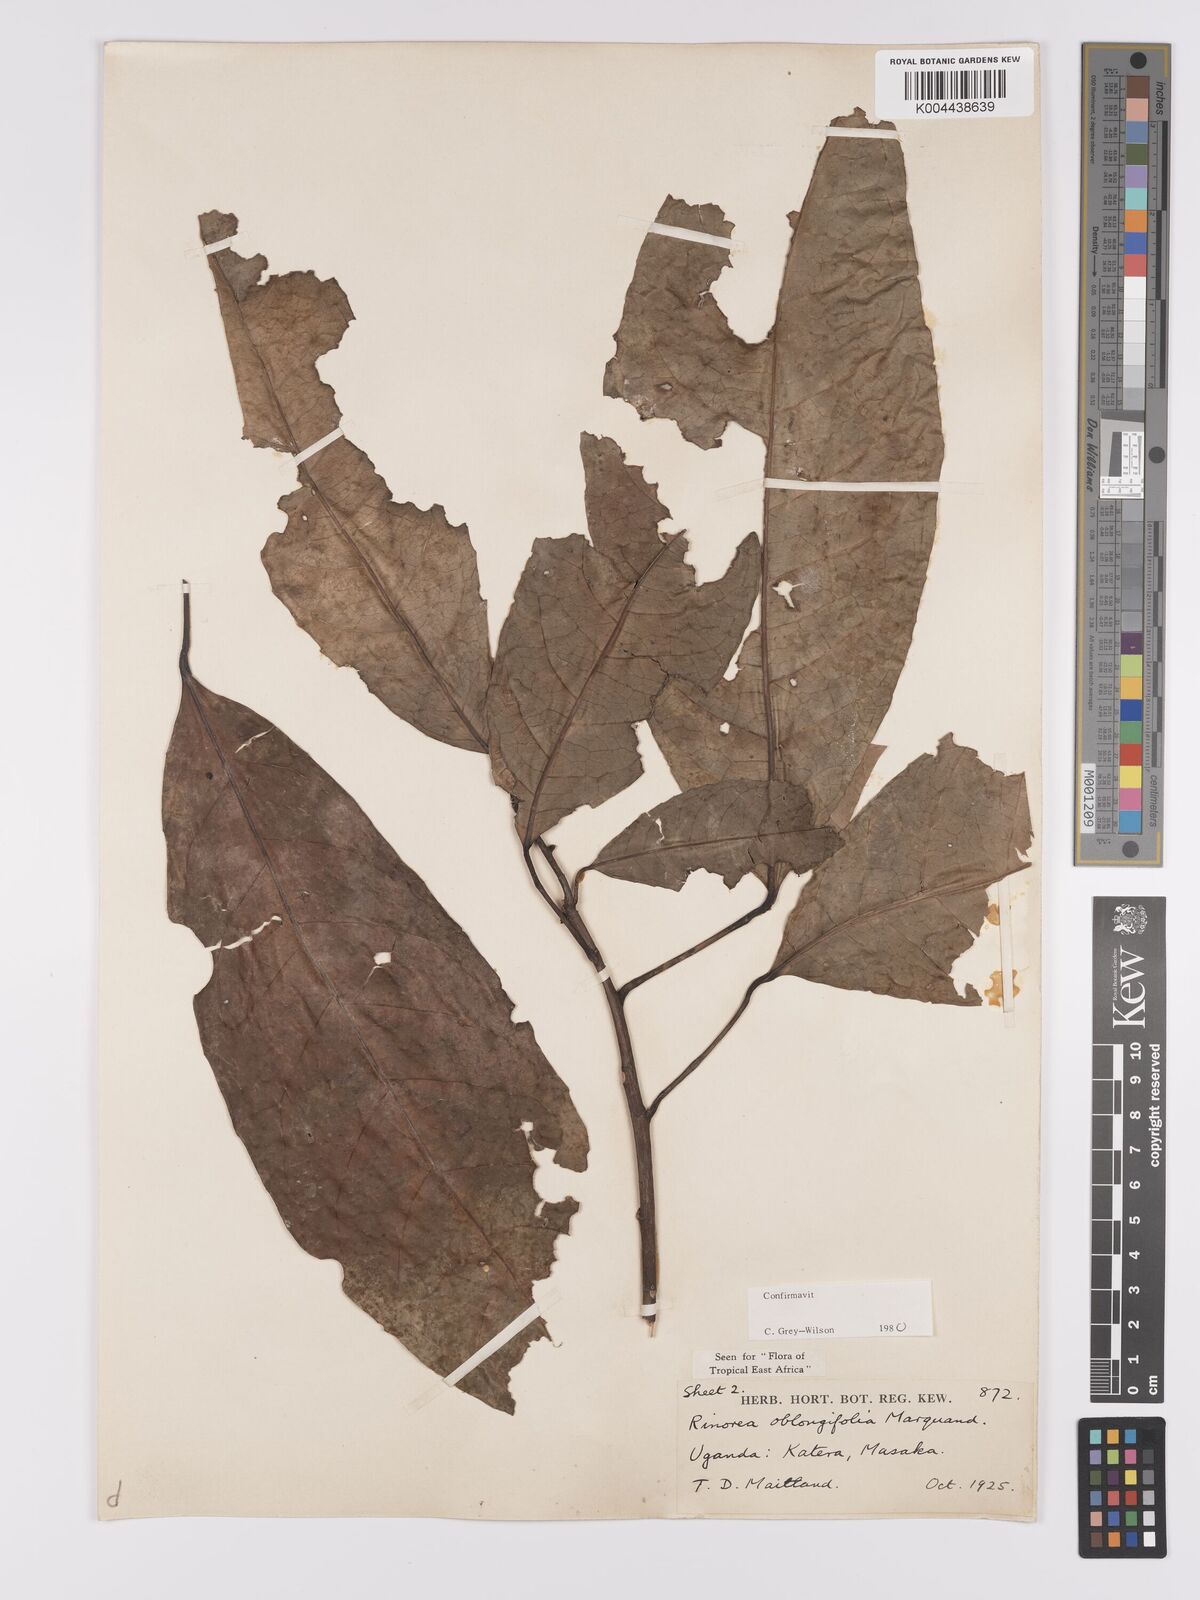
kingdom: Plantae
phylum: Tracheophyta
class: Magnoliopsida
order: Apiales
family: Pittosporaceae
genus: Marianthus
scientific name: Marianthus coeruleopunctatus
